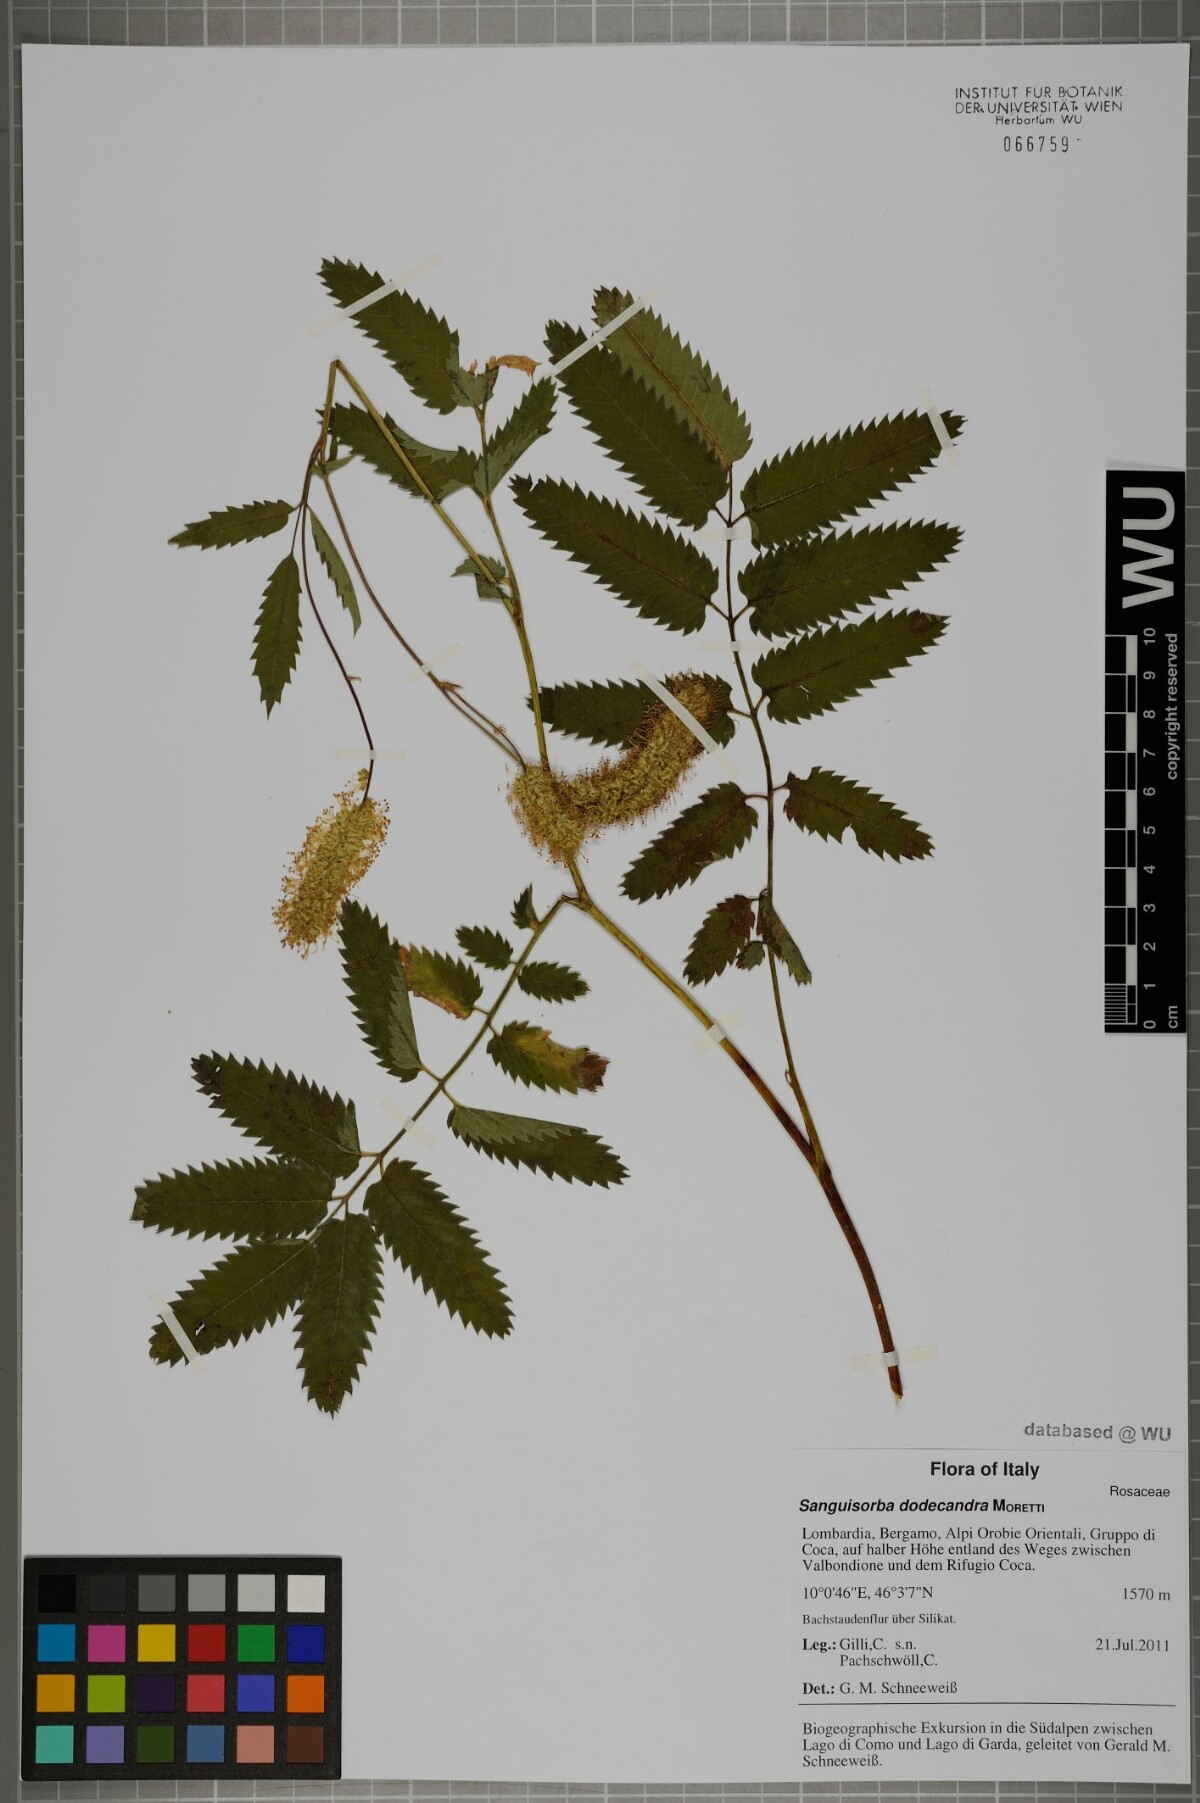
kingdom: Plantae
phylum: Tracheophyta
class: Magnoliopsida
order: Rosales
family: Rosaceae
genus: Poterium
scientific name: Poterium dodecandrum
